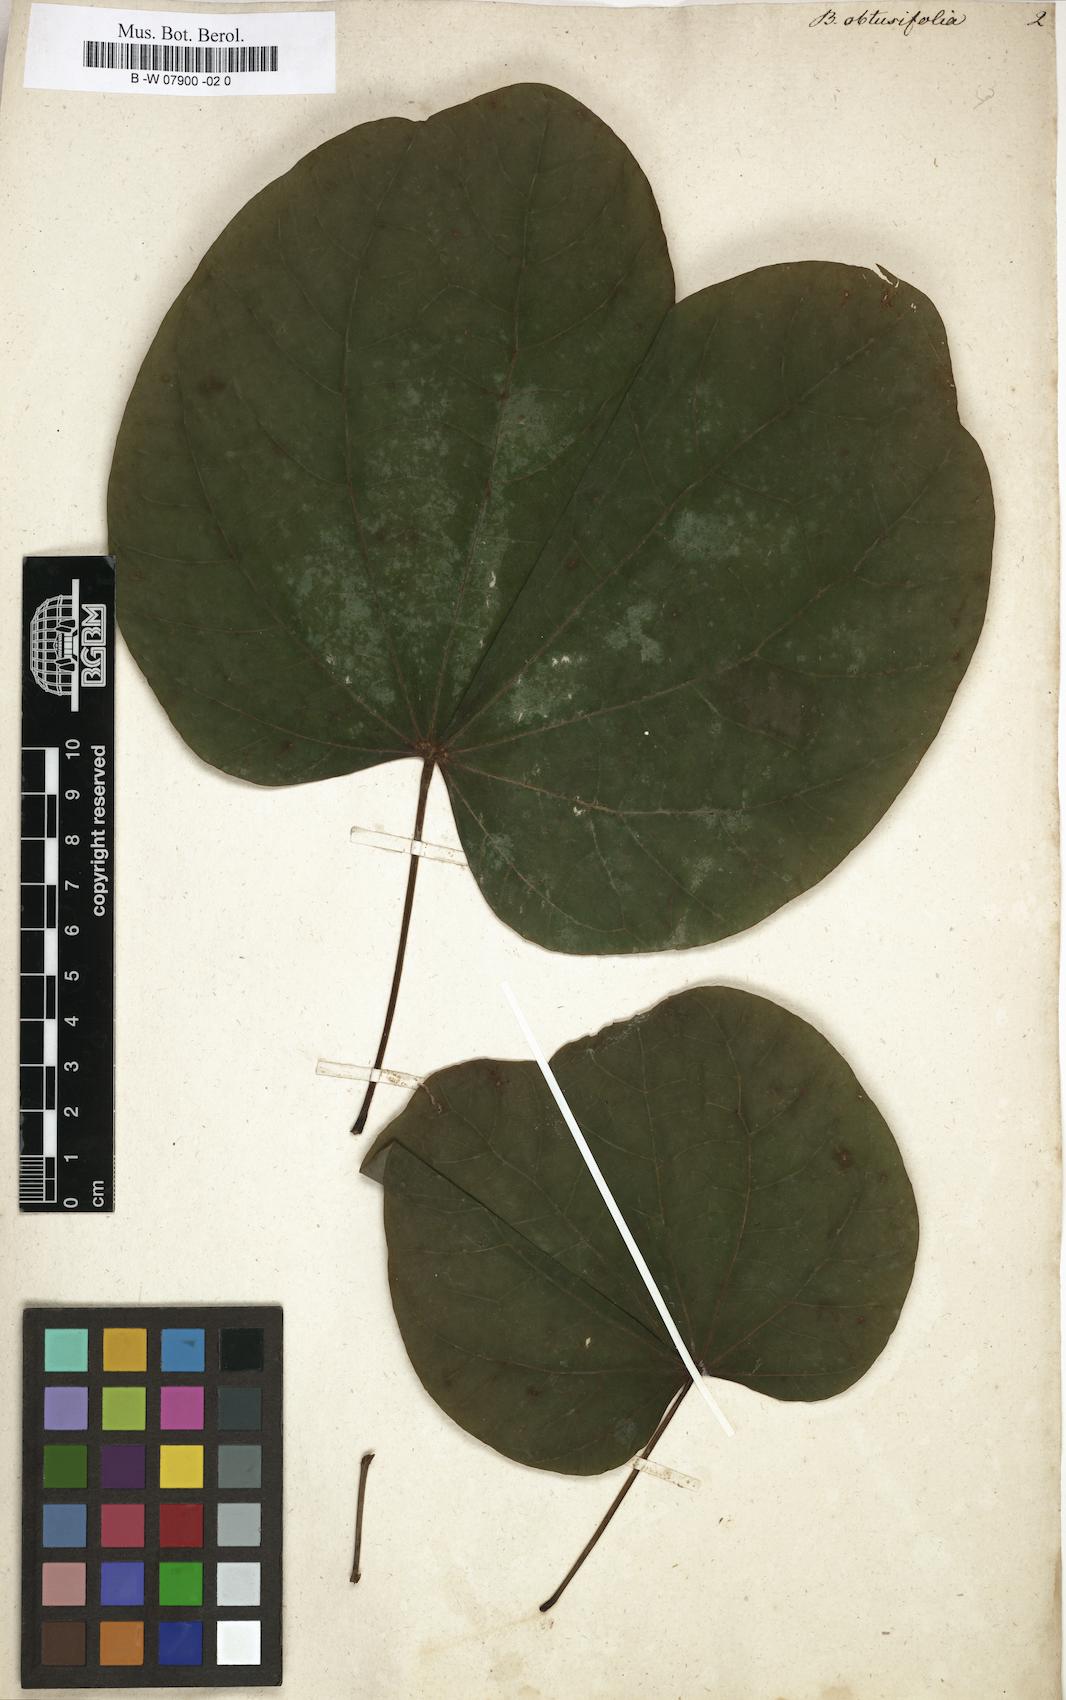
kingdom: Plantae
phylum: Tracheophyta
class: Magnoliopsida
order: Fabales
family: Fabaceae
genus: Bauhinia
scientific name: Bauhinia
